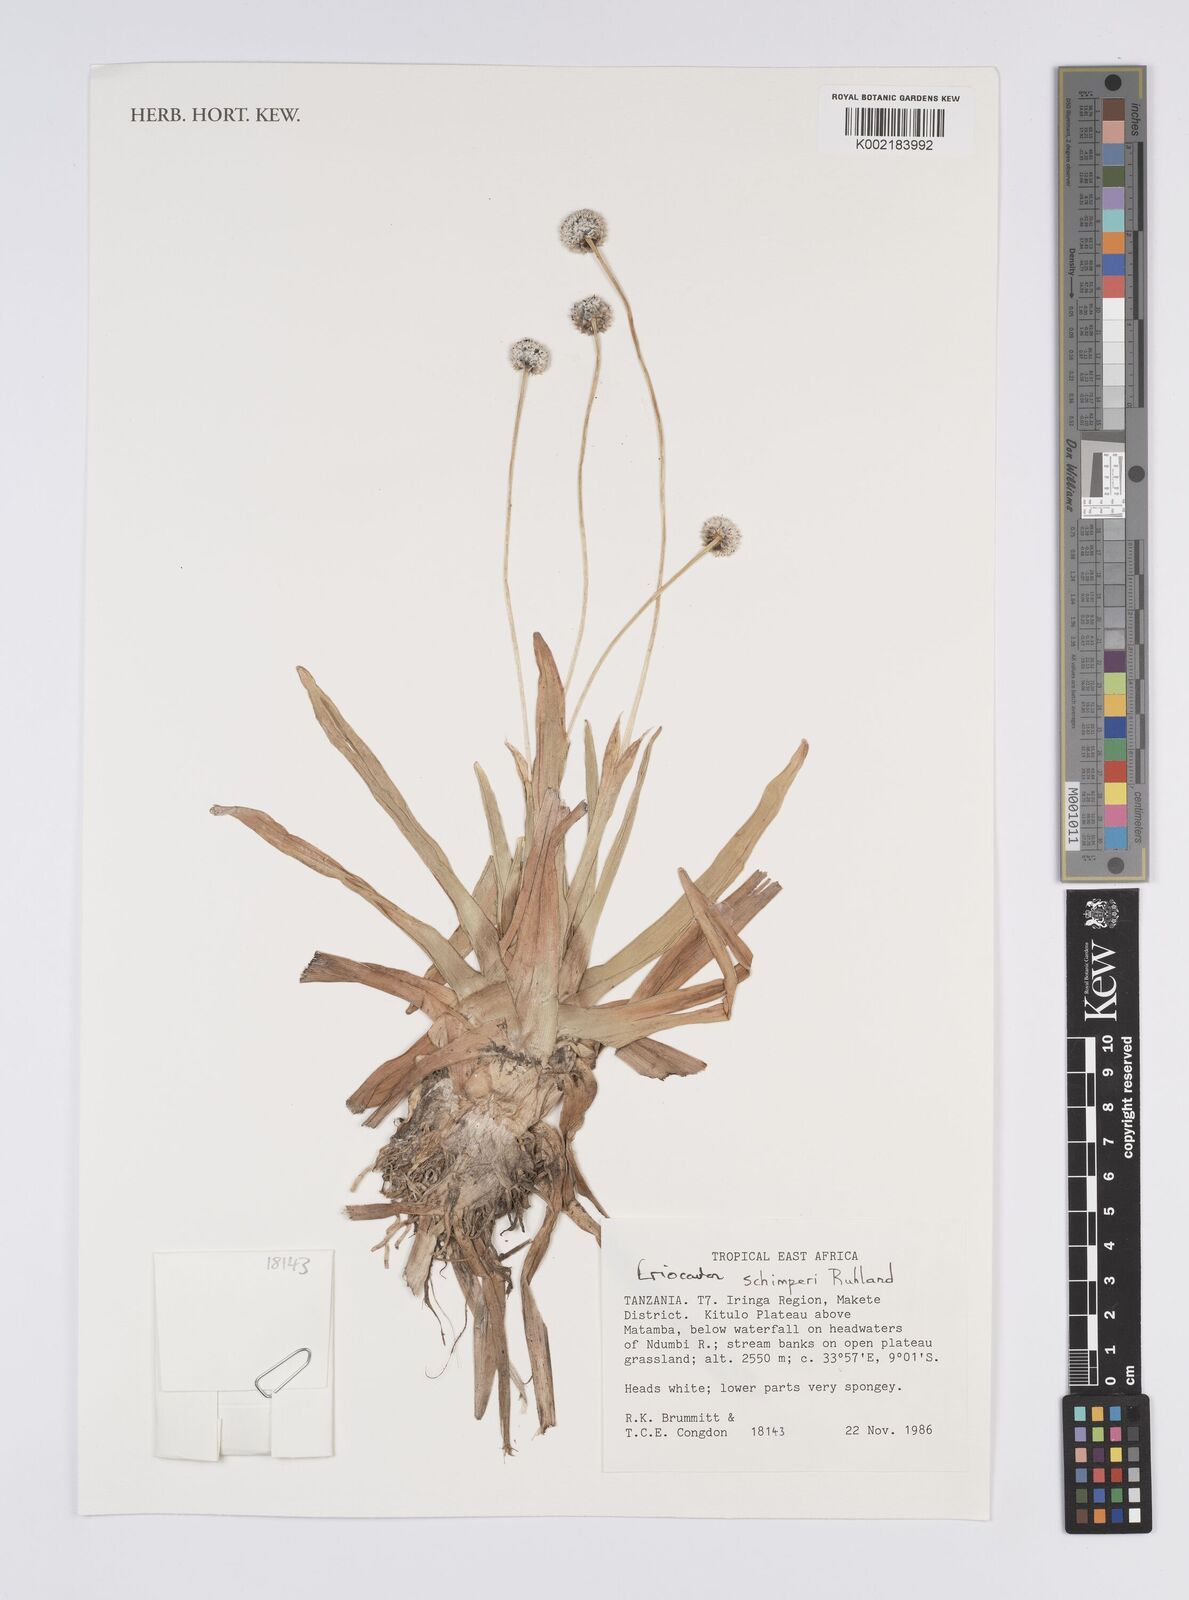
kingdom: Plantae
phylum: Tracheophyta
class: Liliopsida
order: Poales
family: Eriocaulaceae
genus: Eriocaulon
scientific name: Eriocaulon schimperi
